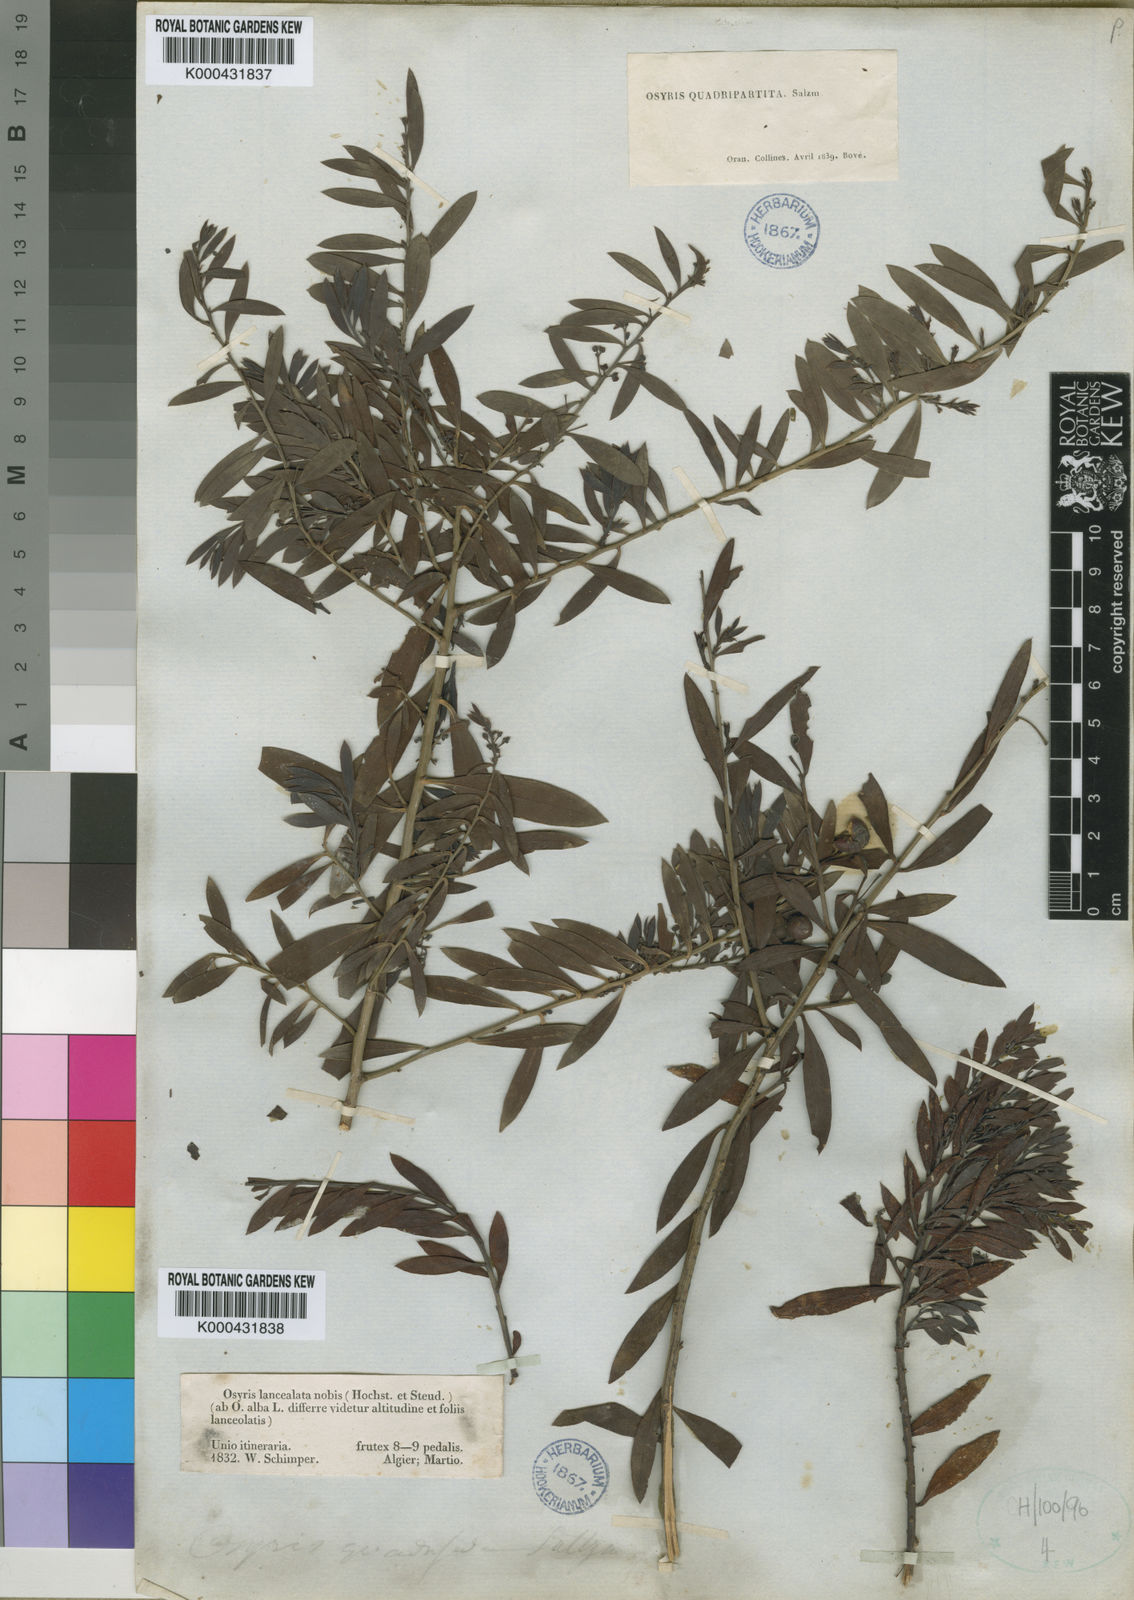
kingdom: Plantae
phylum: Tracheophyta
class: Magnoliopsida
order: Santalales
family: Santalaceae
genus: Osyris
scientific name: Osyris lanceolata
